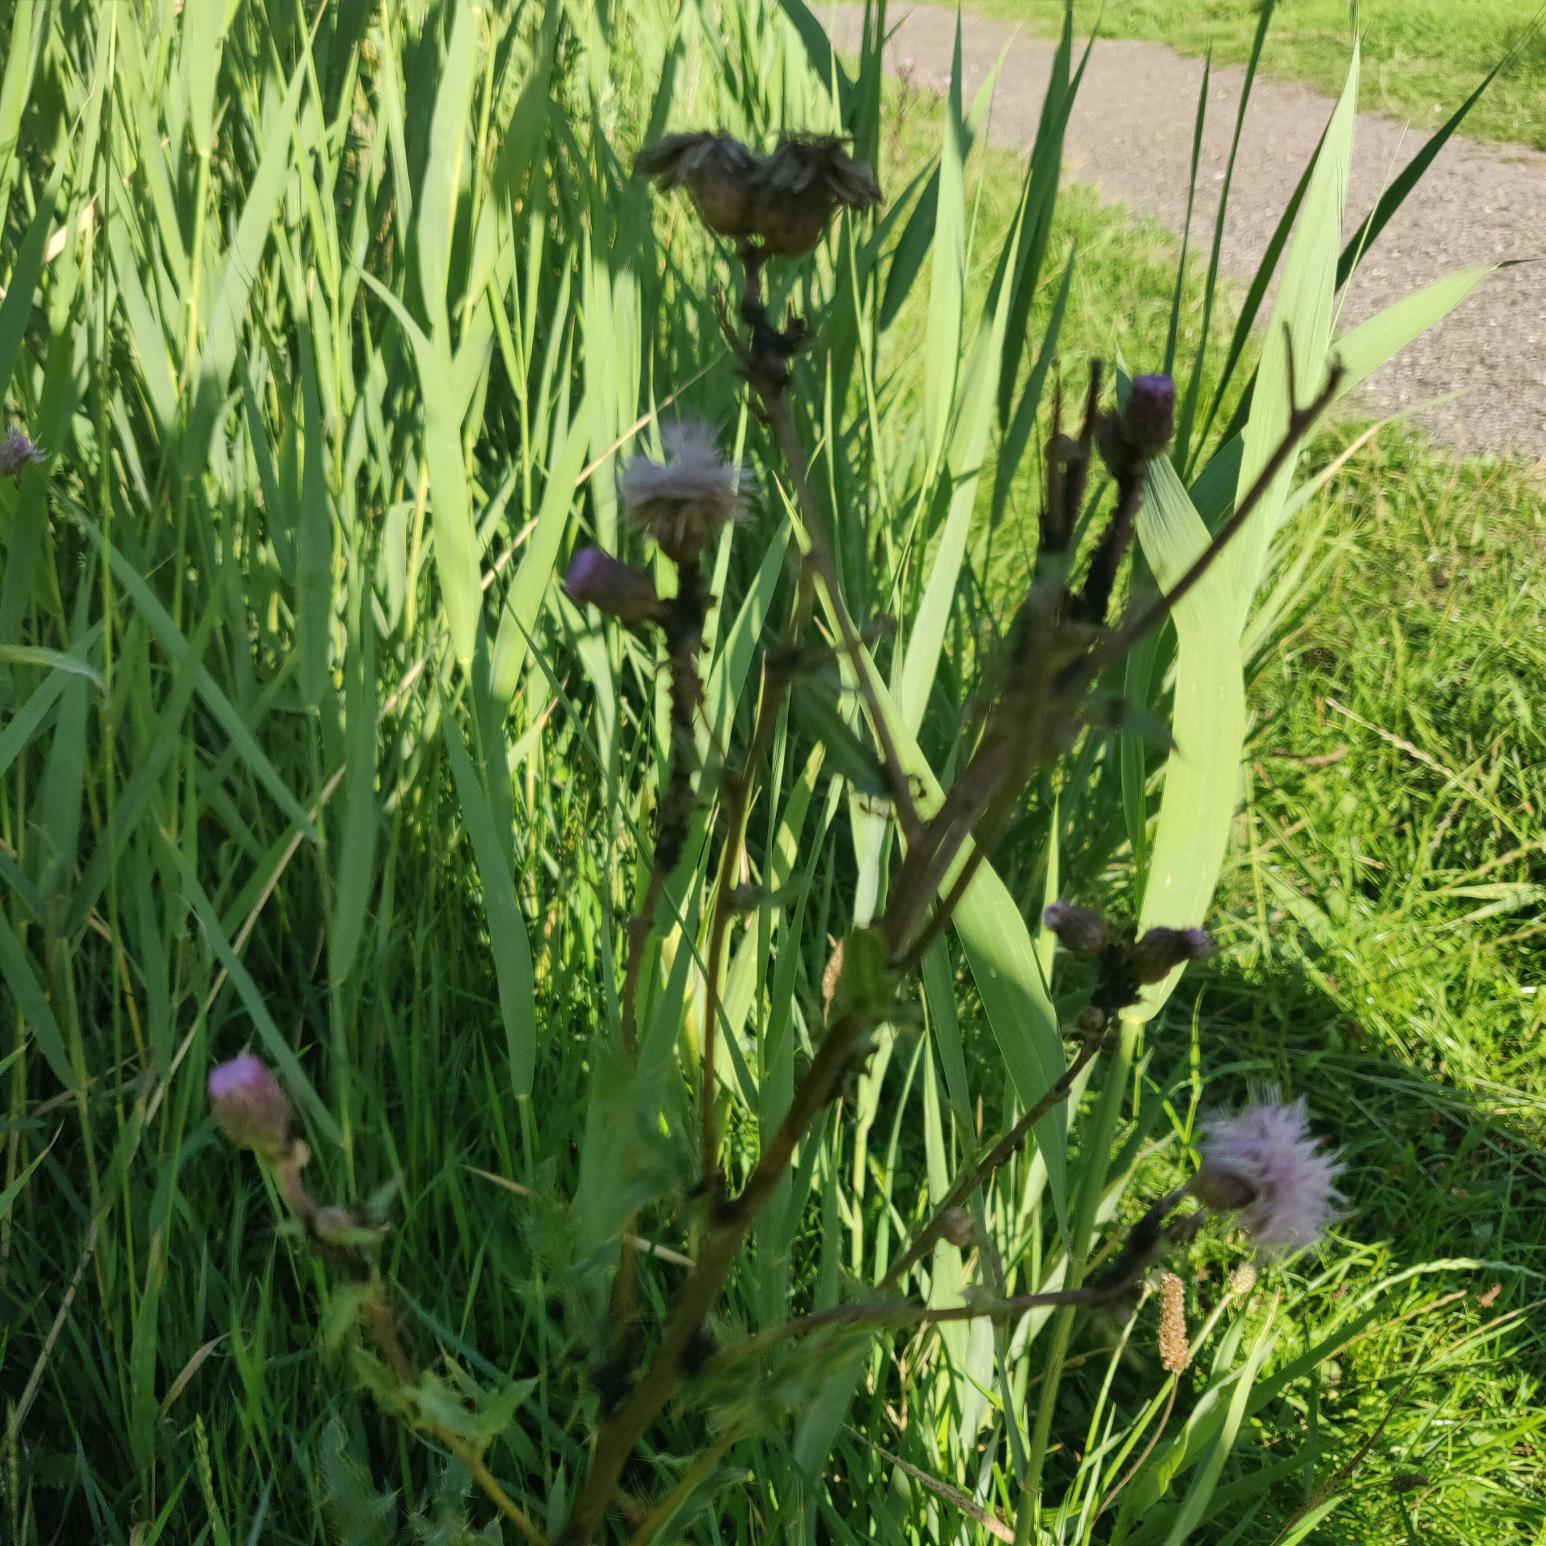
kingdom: Plantae
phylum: Tracheophyta
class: Magnoliopsida
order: Asterales
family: Asteraceae
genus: Cirsium
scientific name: Cirsium arvense
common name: Ager-tidsel
